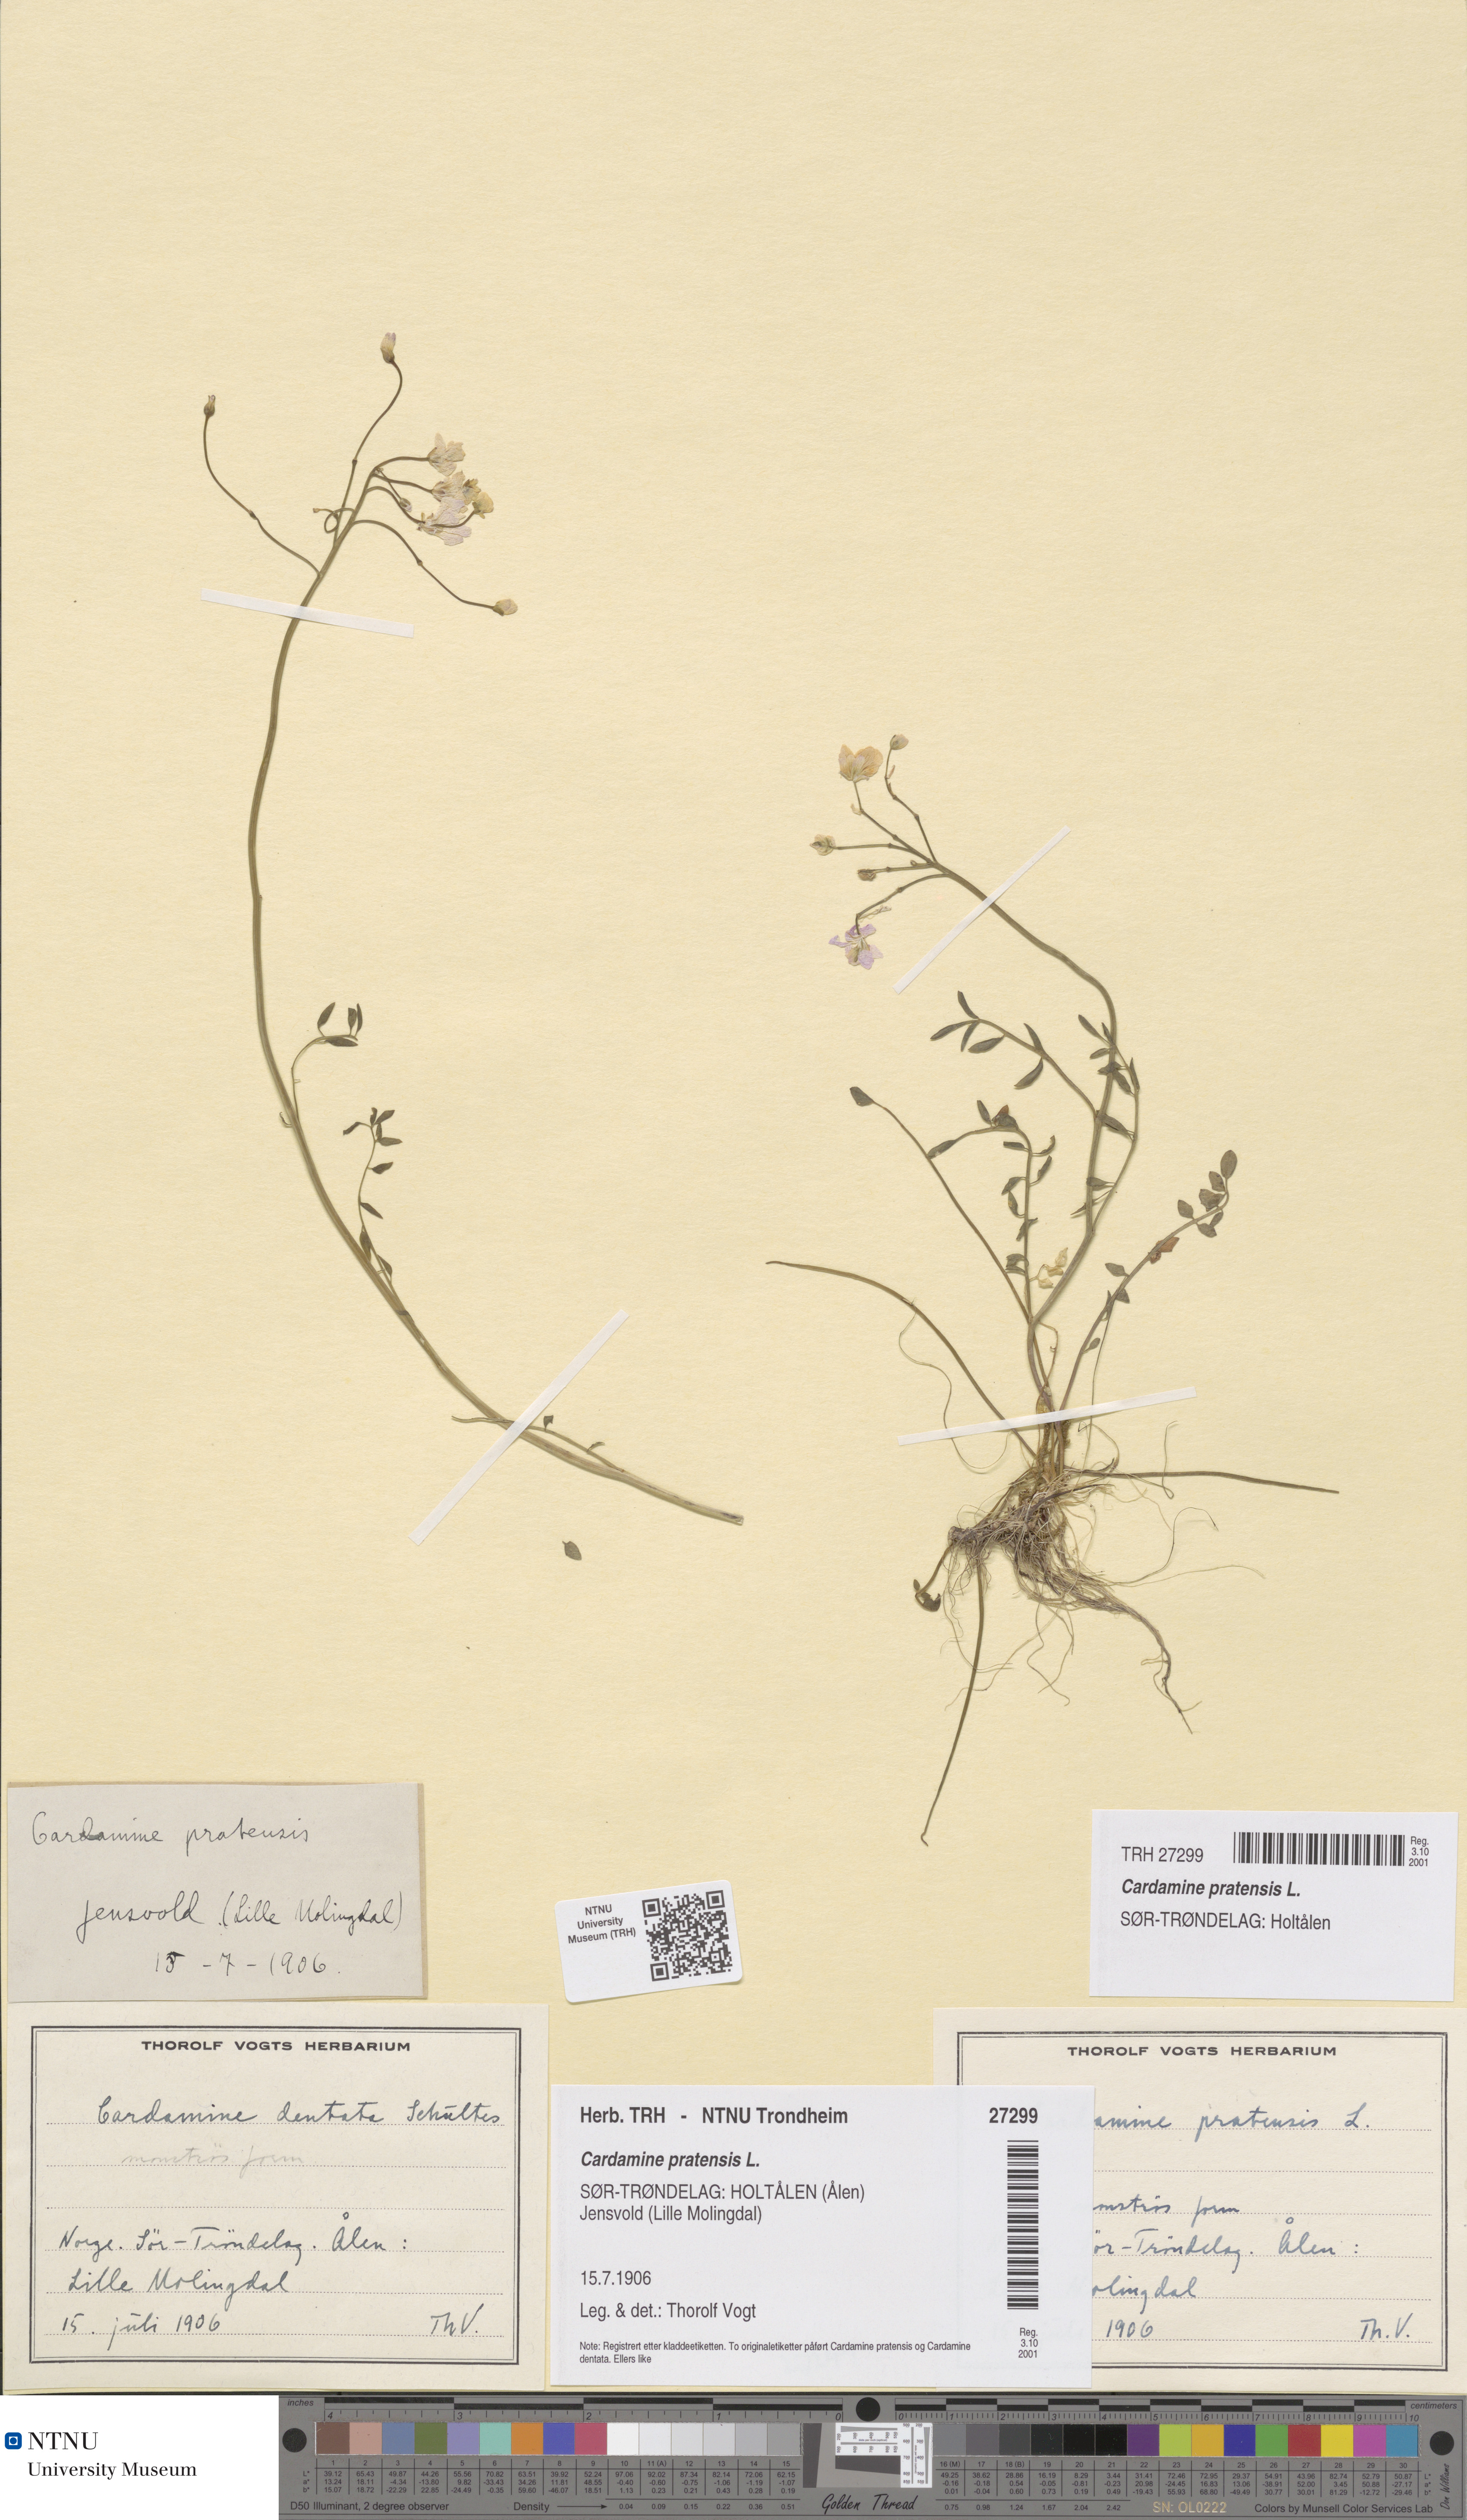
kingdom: Plantae
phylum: Tracheophyta
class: Magnoliopsida
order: Brassicales
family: Brassicaceae
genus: Cardamine
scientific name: Cardamine nymanii
